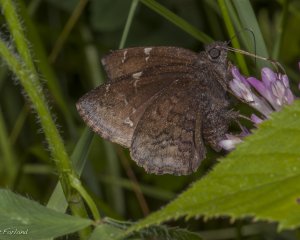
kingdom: Animalia
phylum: Arthropoda
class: Insecta
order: Lepidoptera
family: Hesperiidae
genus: Autochton
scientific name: Autochton
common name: Northern Cloudywing
